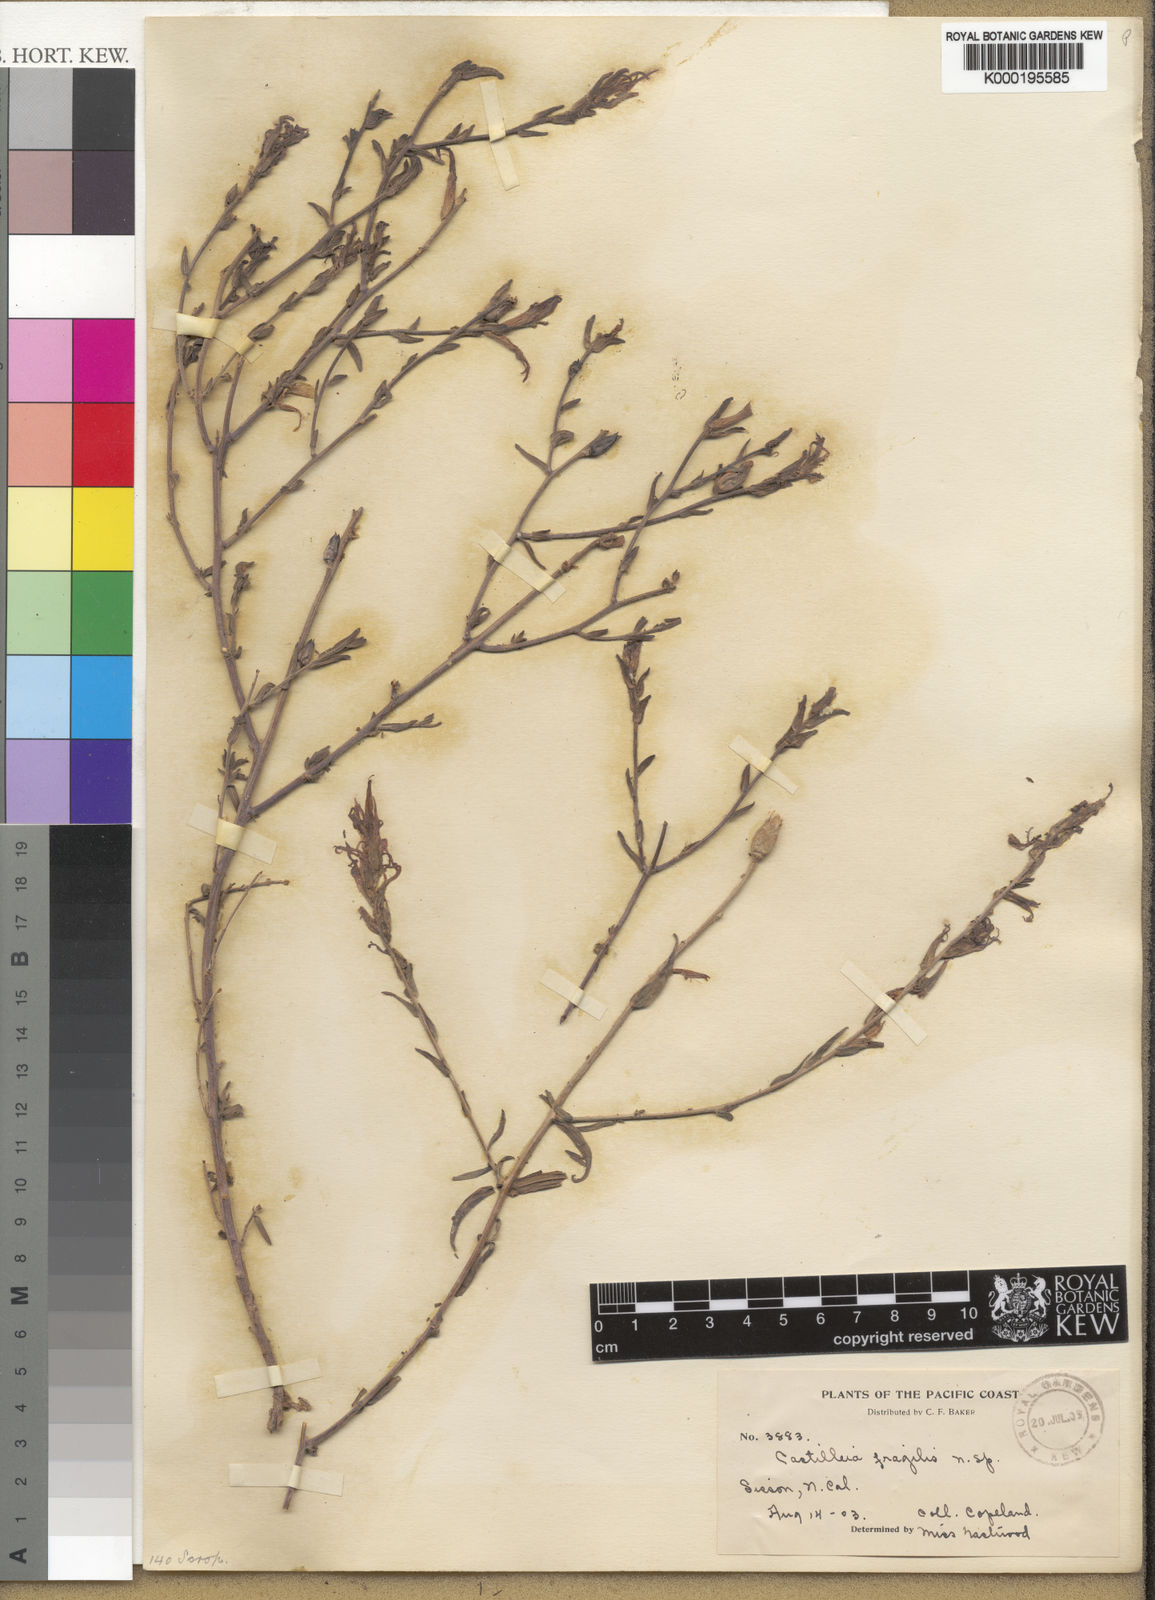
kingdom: Plantae
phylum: Tracheophyta
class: Magnoliopsida
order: Lamiales
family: Orobanchaceae
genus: Castilleja
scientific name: Castilleja applegatei
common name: Wavy-leaf paintbrush
